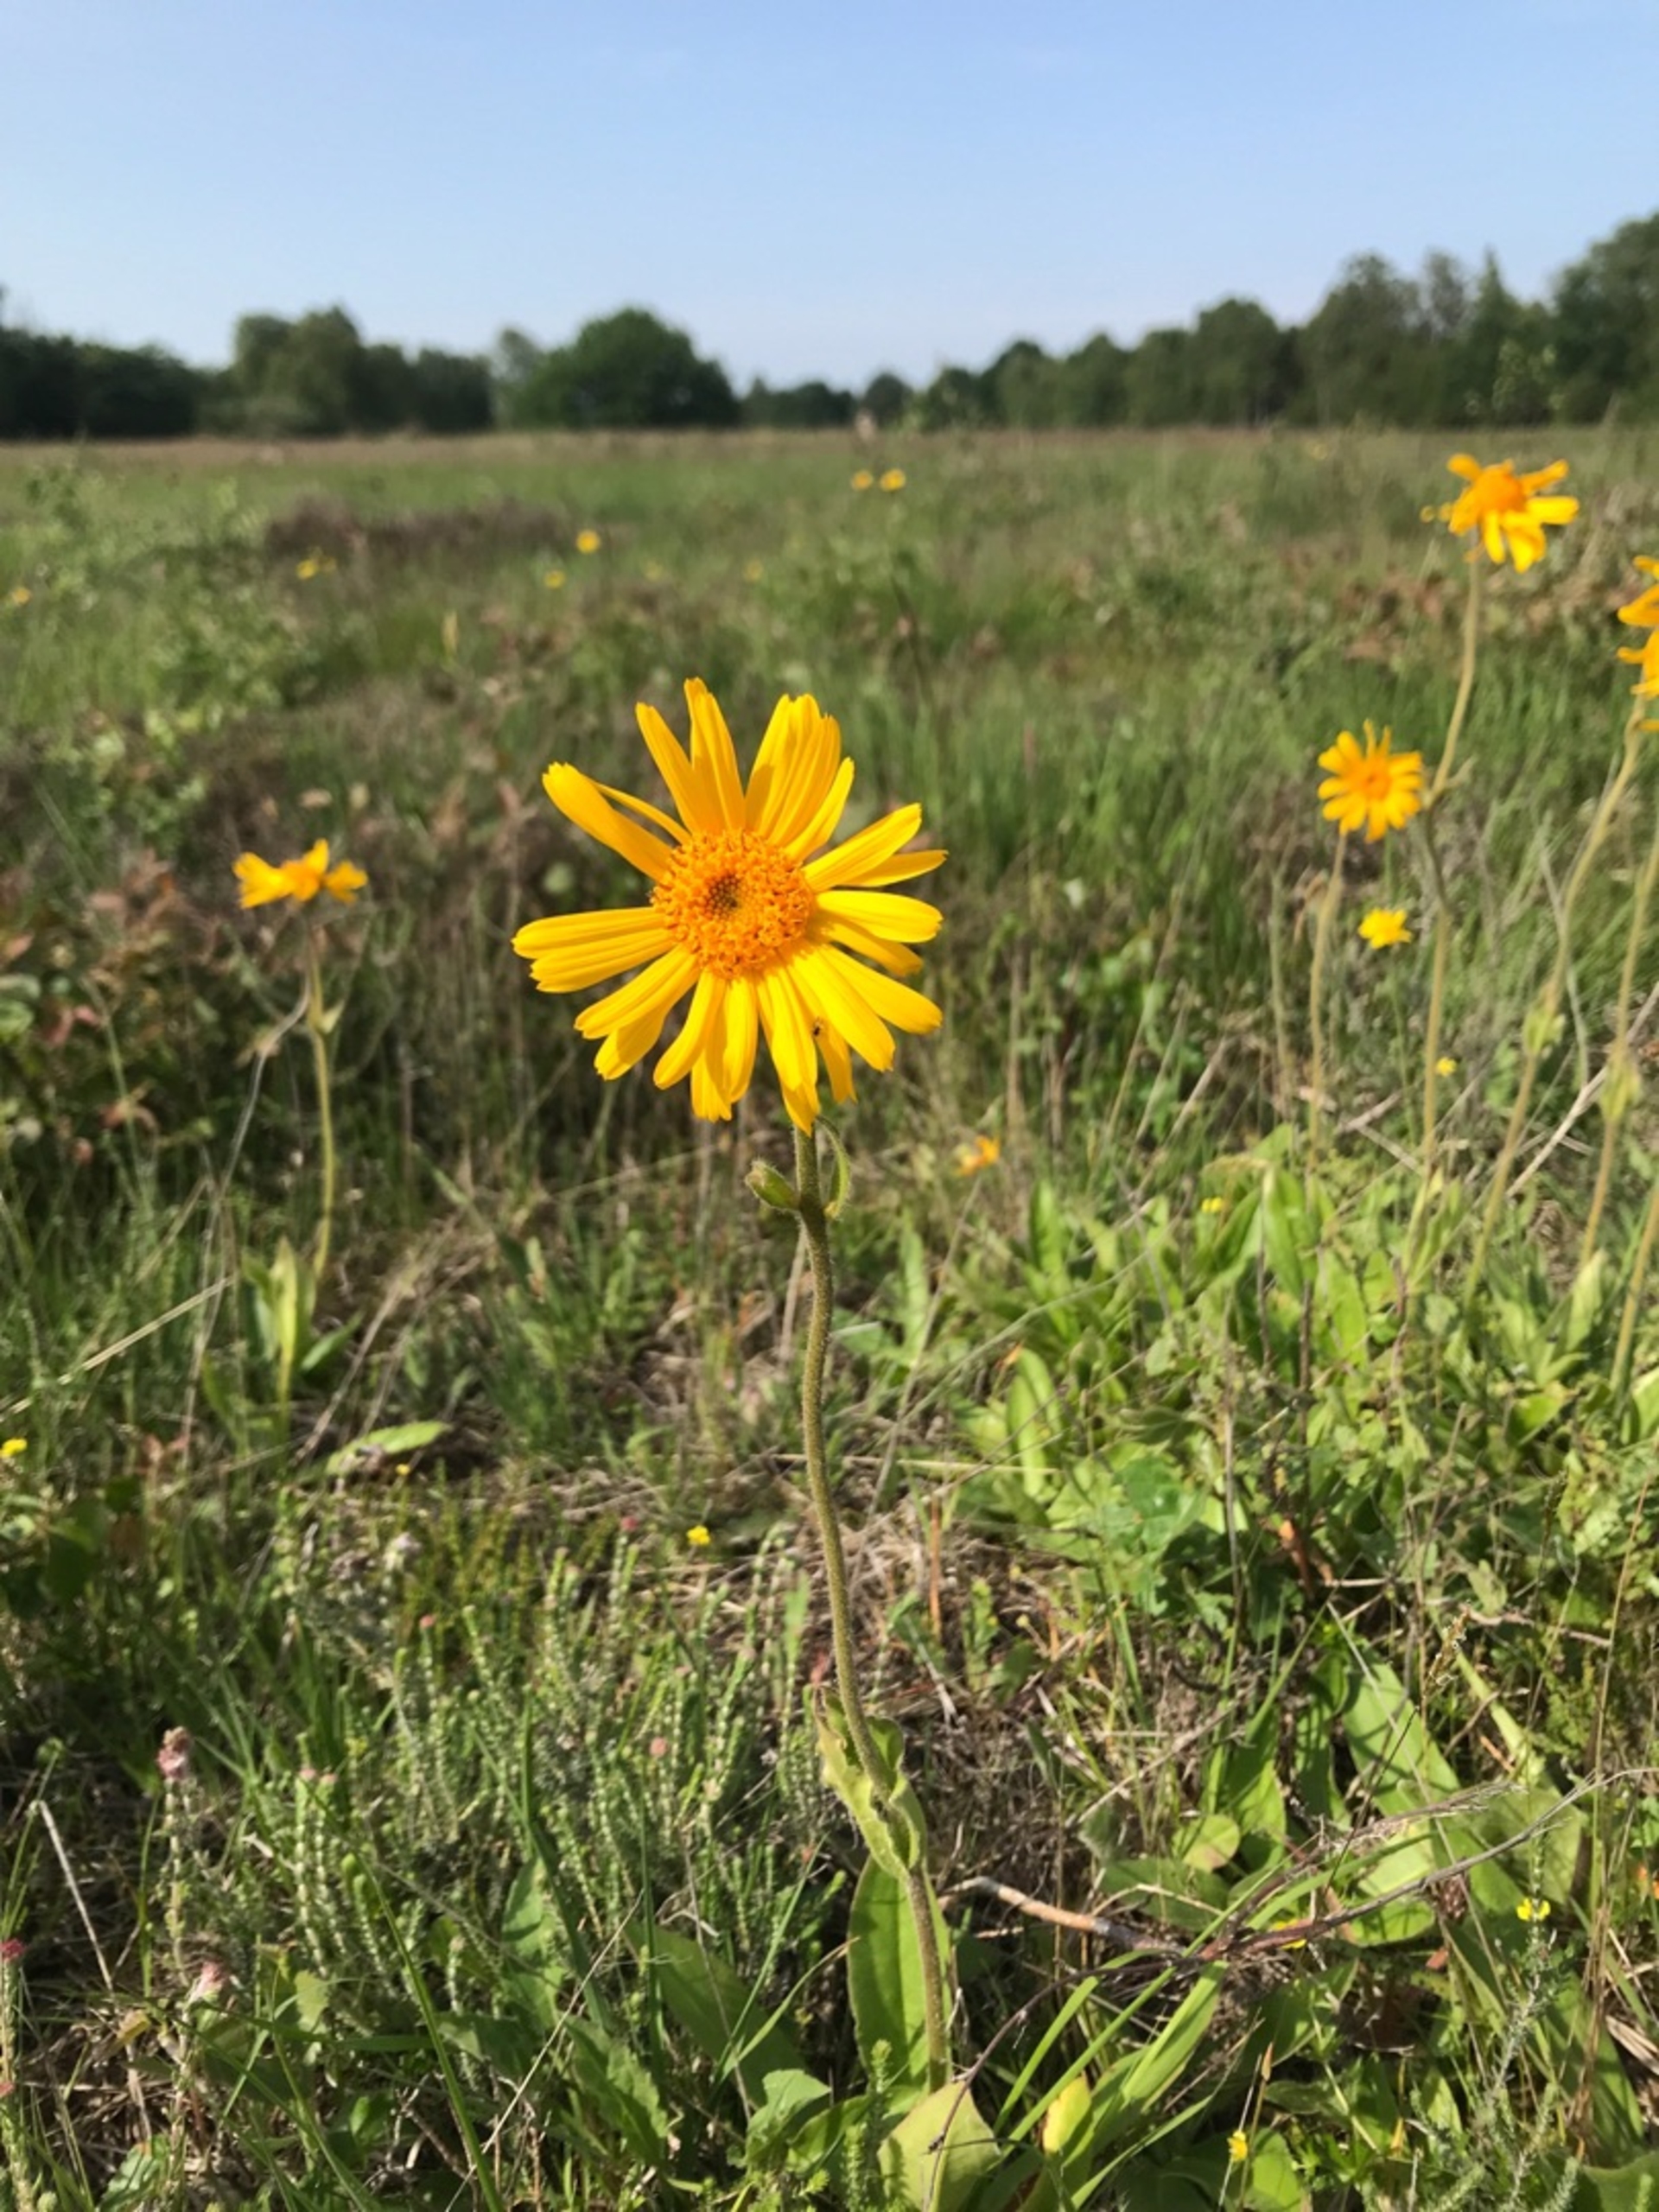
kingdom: Plantae
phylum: Tracheophyta
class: Magnoliopsida
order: Asterales
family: Asteraceae
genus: Arnica
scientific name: Arnica montana
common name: Guldblomme
